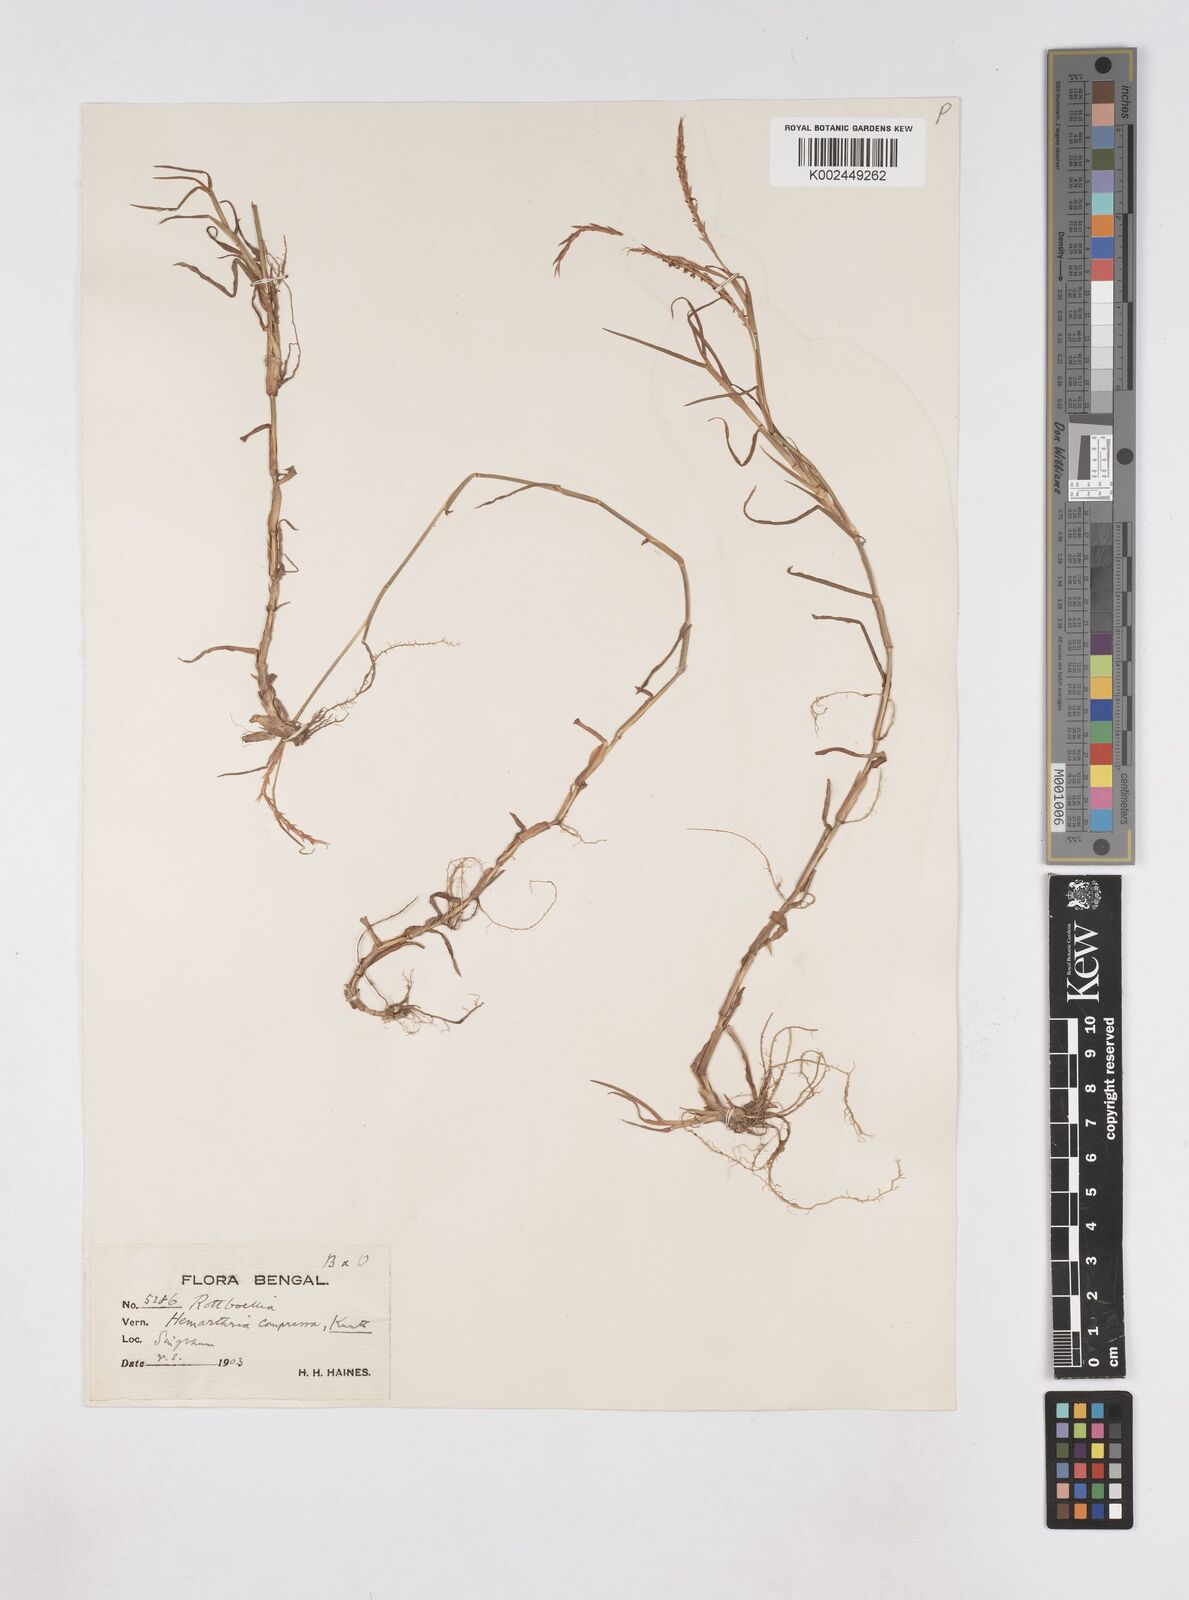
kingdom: Plantae
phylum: Tracheophyta
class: Liliopsida
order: Poales
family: Poaceae
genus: Hemarthria
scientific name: Hemarthria compressa
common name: Whip grass
